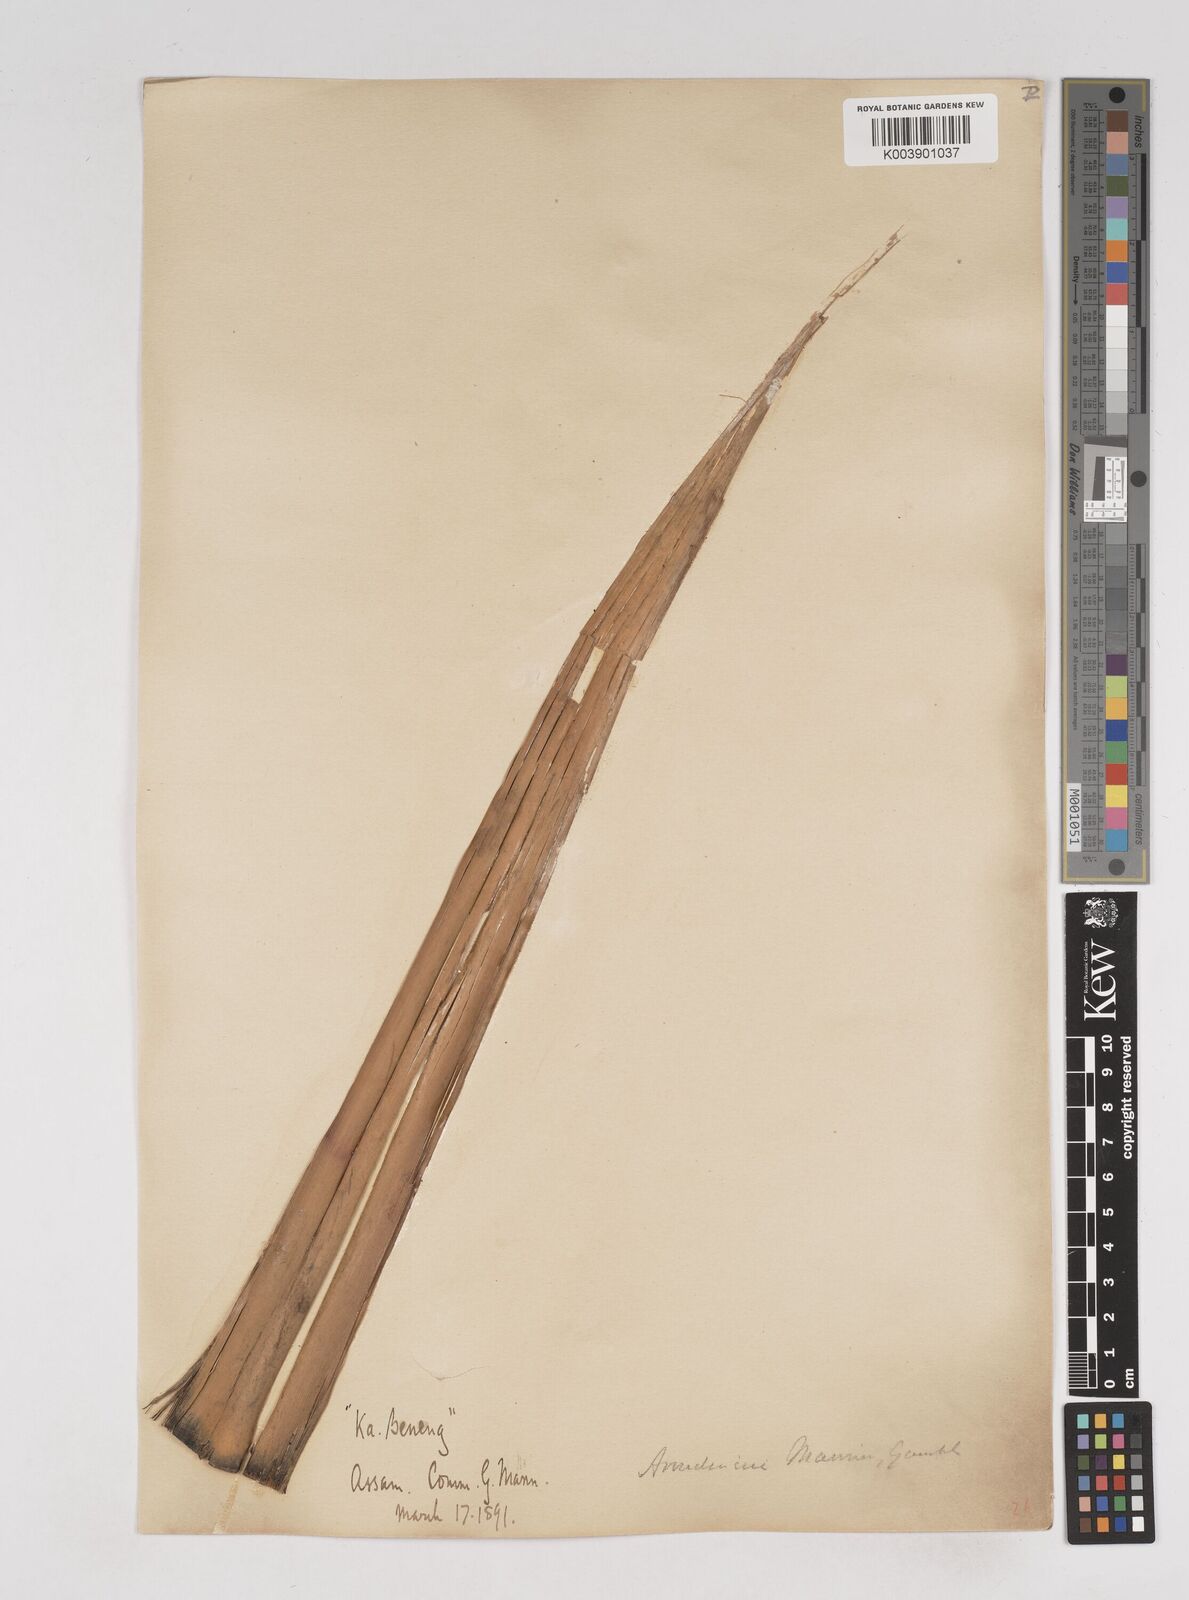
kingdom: Plantae
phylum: Tracheophyta
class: Liliopsida
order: Poales
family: Poaceae
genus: Cephalostachyum
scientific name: Cephalostachyum mannii
